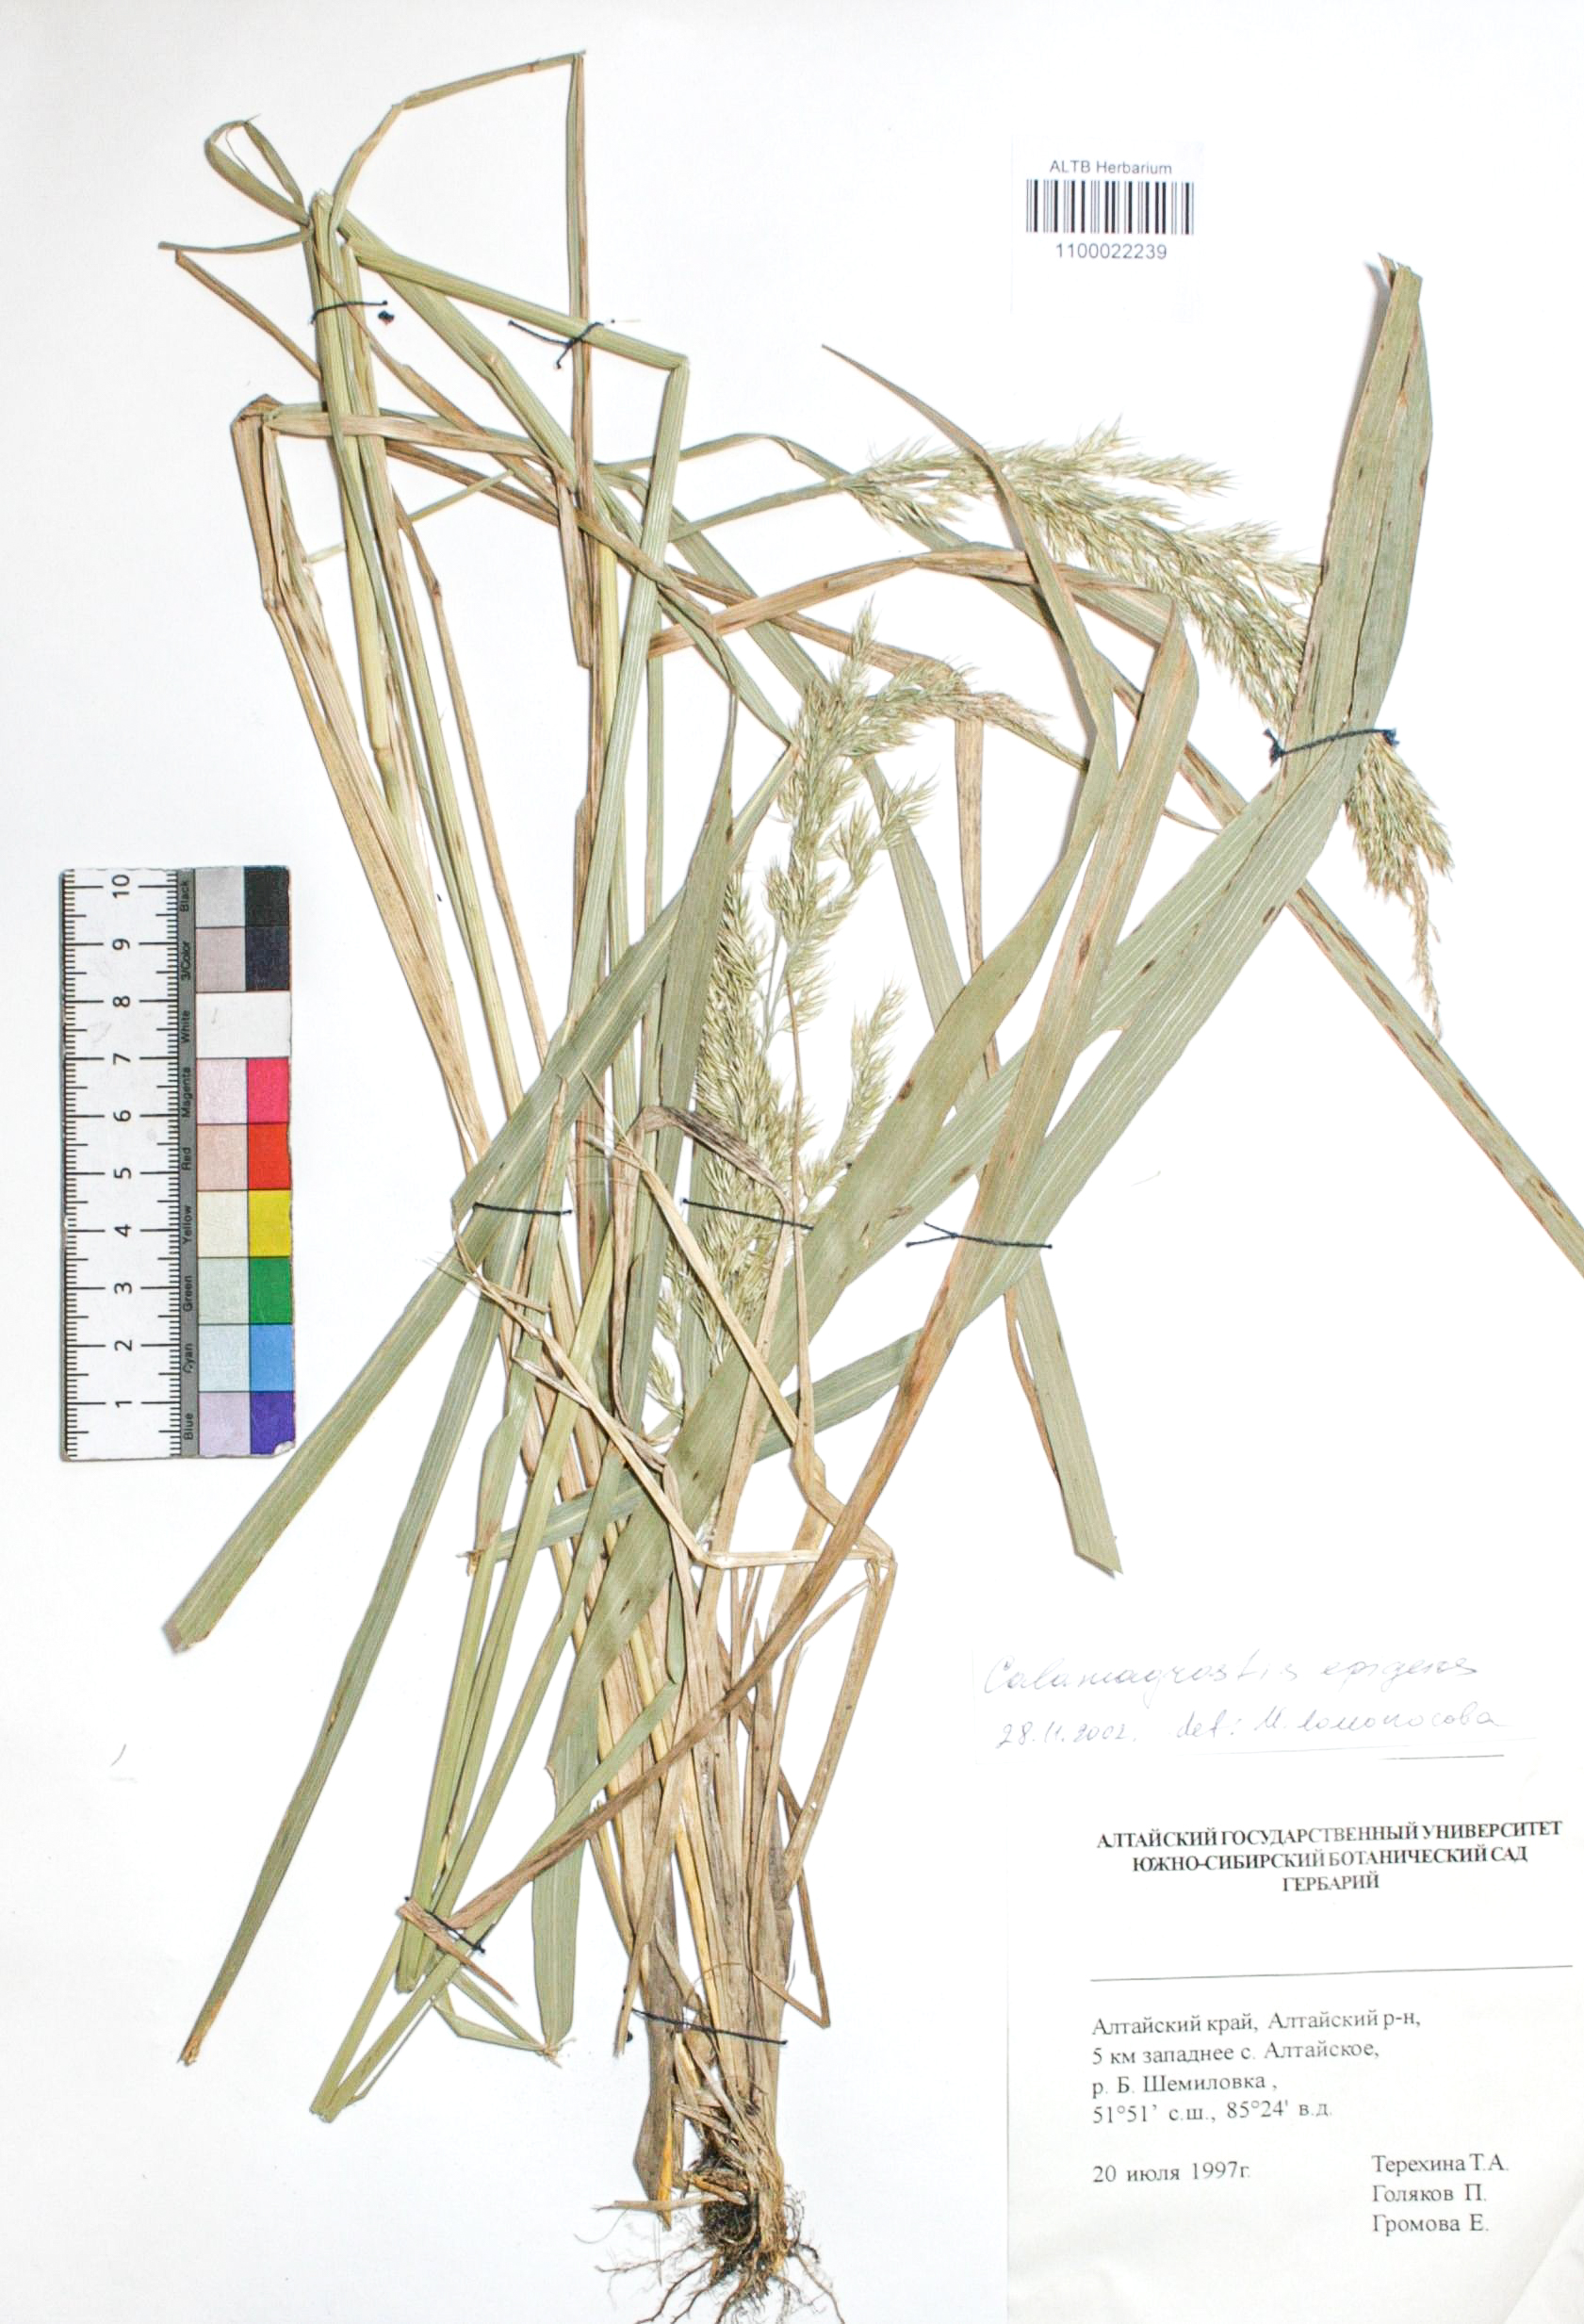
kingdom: Plantae
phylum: Tracheophyta
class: Liliopsida
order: Poales
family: Poaceae
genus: Calamagrostis
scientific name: Calamagrostis epigejos
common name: Wood small-reed
